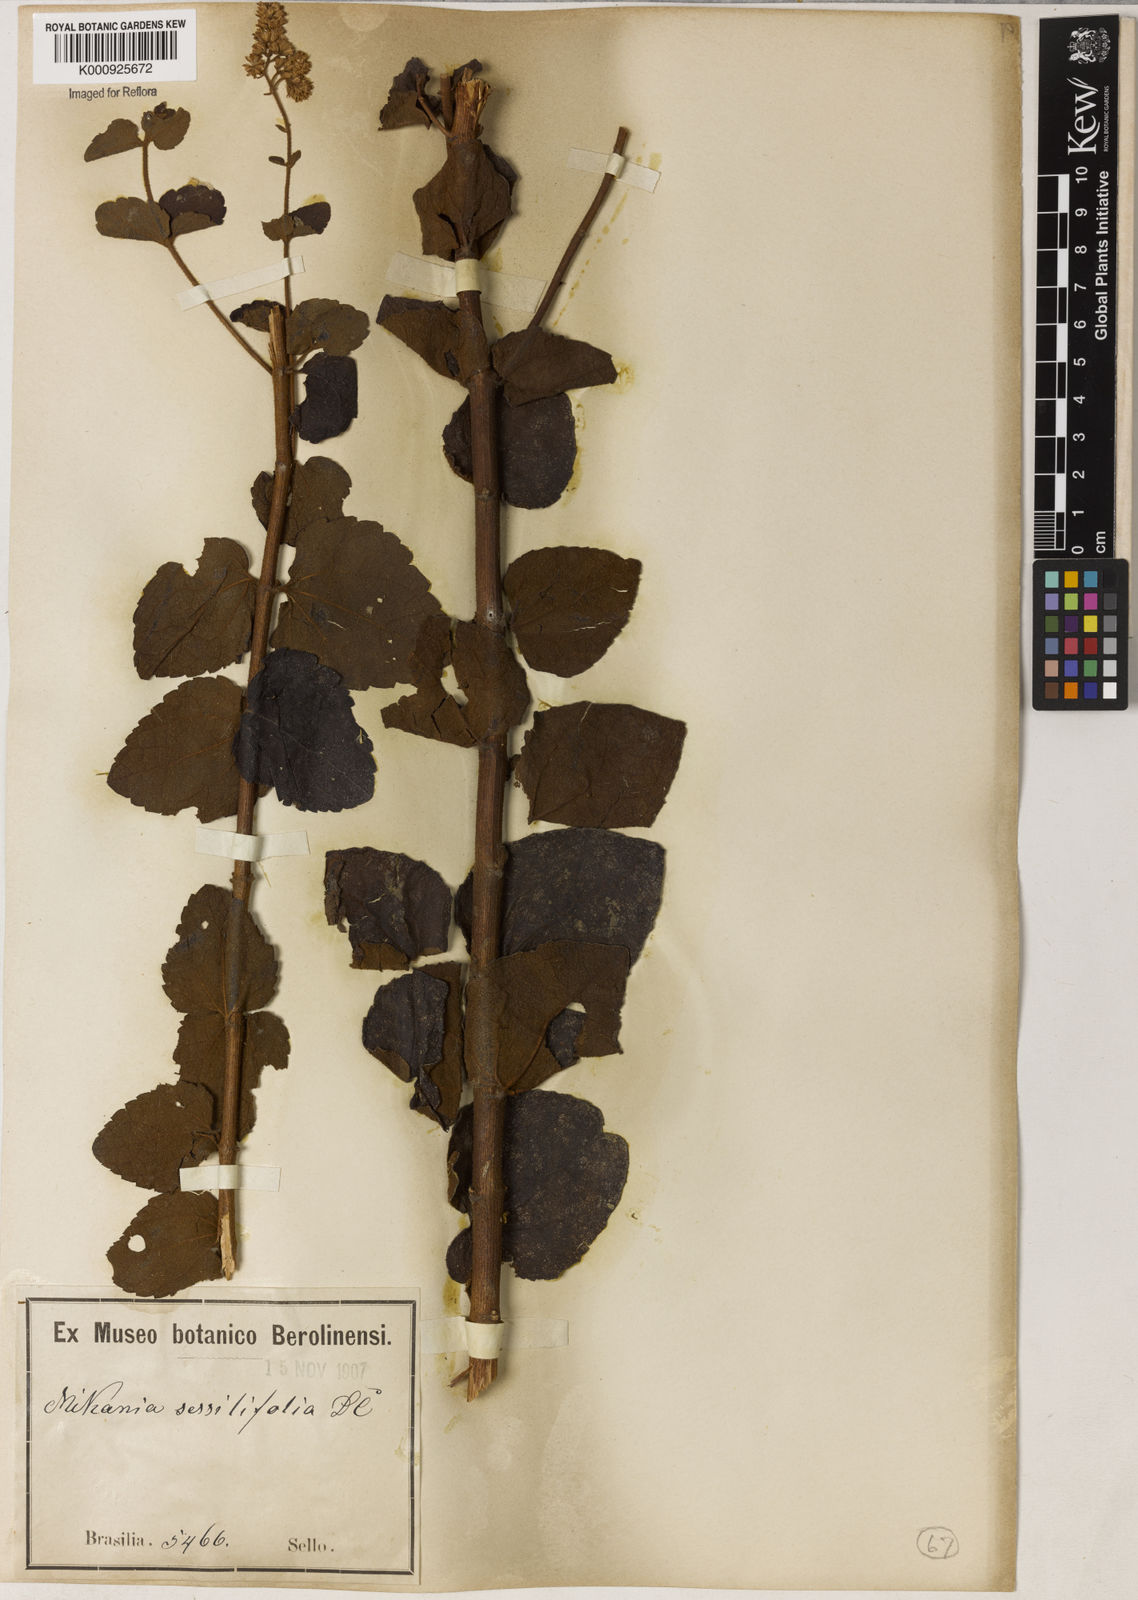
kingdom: Plantae
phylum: Tracheophyta
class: Magnoliopsida
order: Asterales
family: Asteraceae
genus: Mikania
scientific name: Mikania sessilifolia
